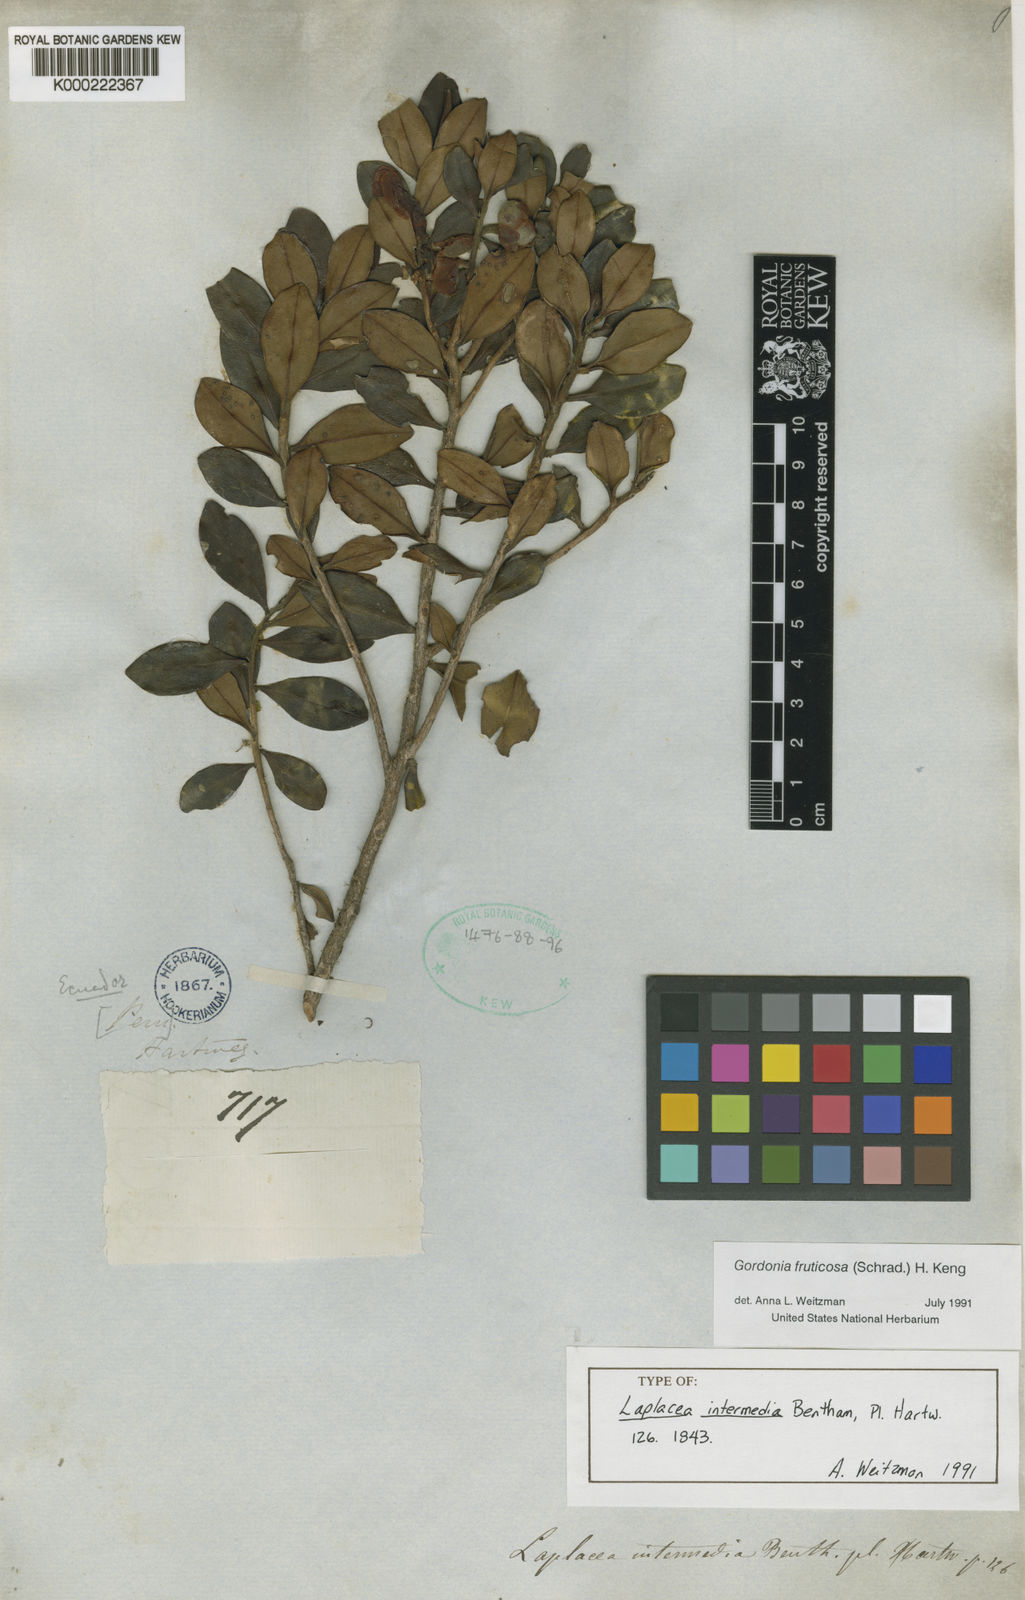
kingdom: Plantae
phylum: Tracheophyta
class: Magnoliopsida
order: Ericales
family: Theaceae
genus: Gordonia
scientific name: Gordonia fruticosa
